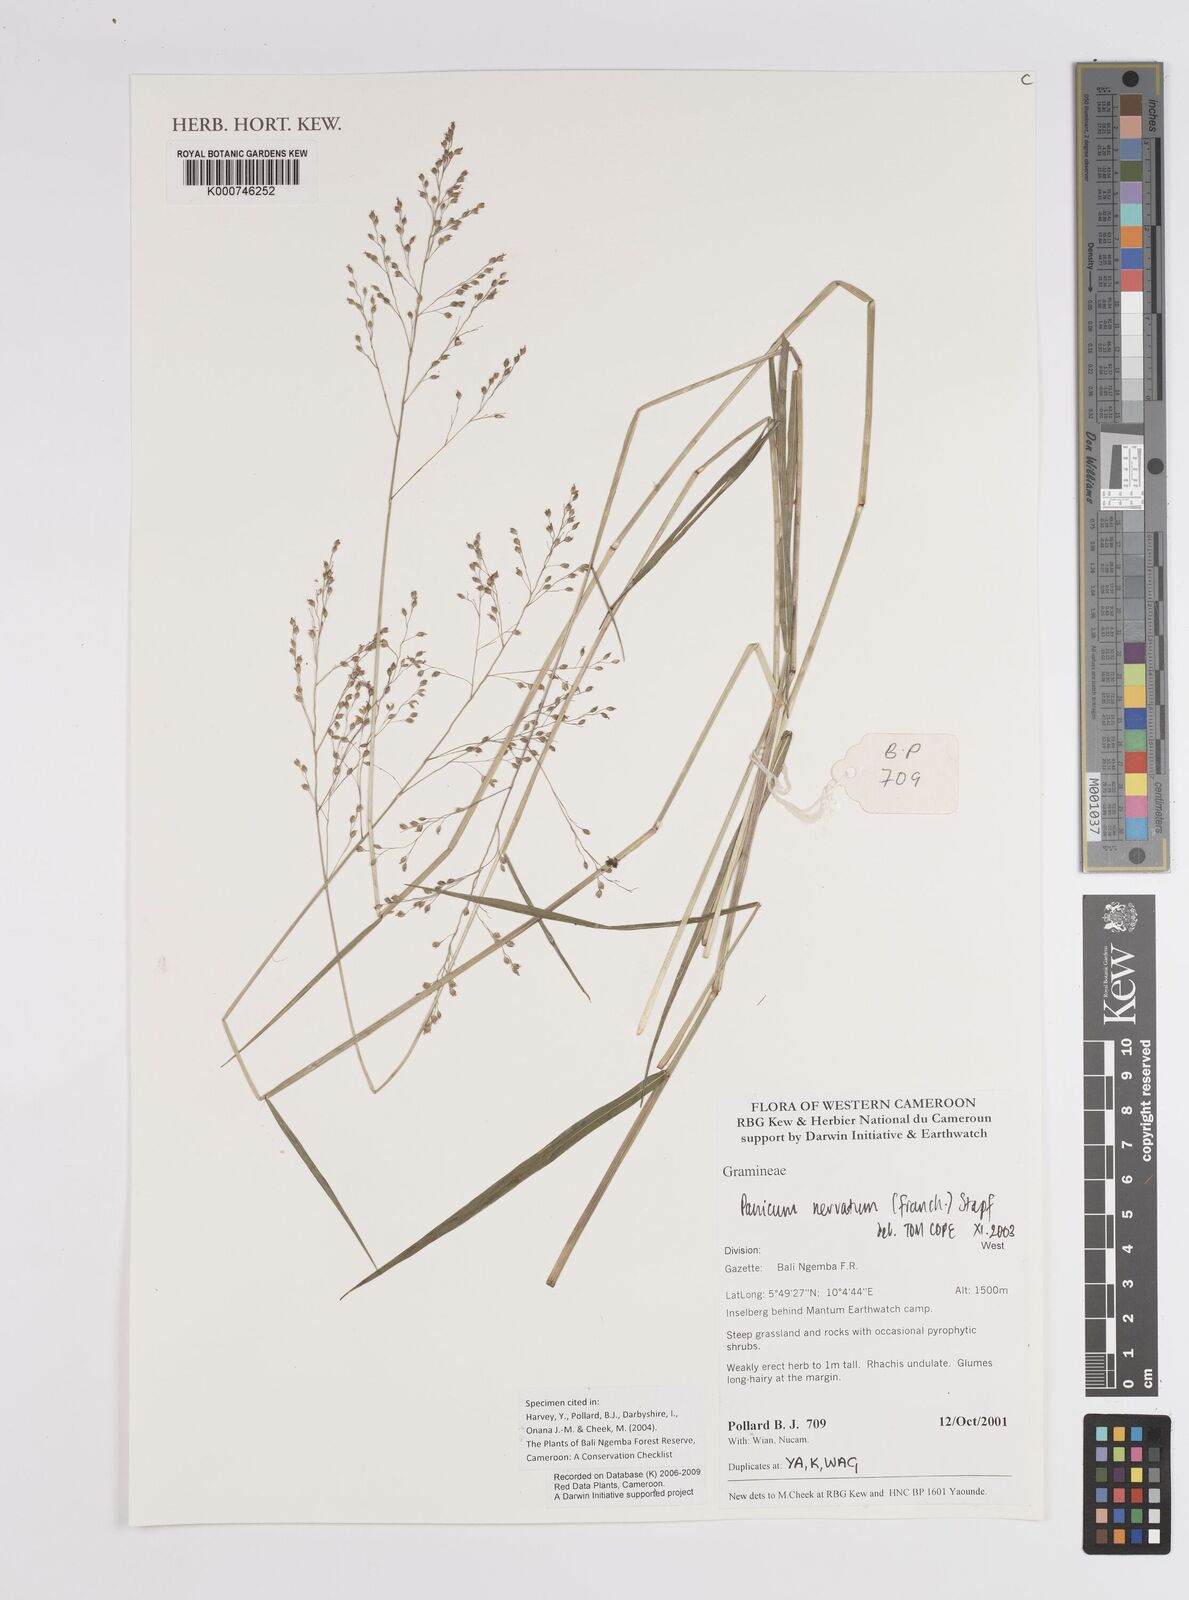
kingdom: Plantae
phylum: Tracheophyta
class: Liliopsida
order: Poales
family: Poaceae
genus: Trichanthecium
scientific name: Trichanthecium nervatum
